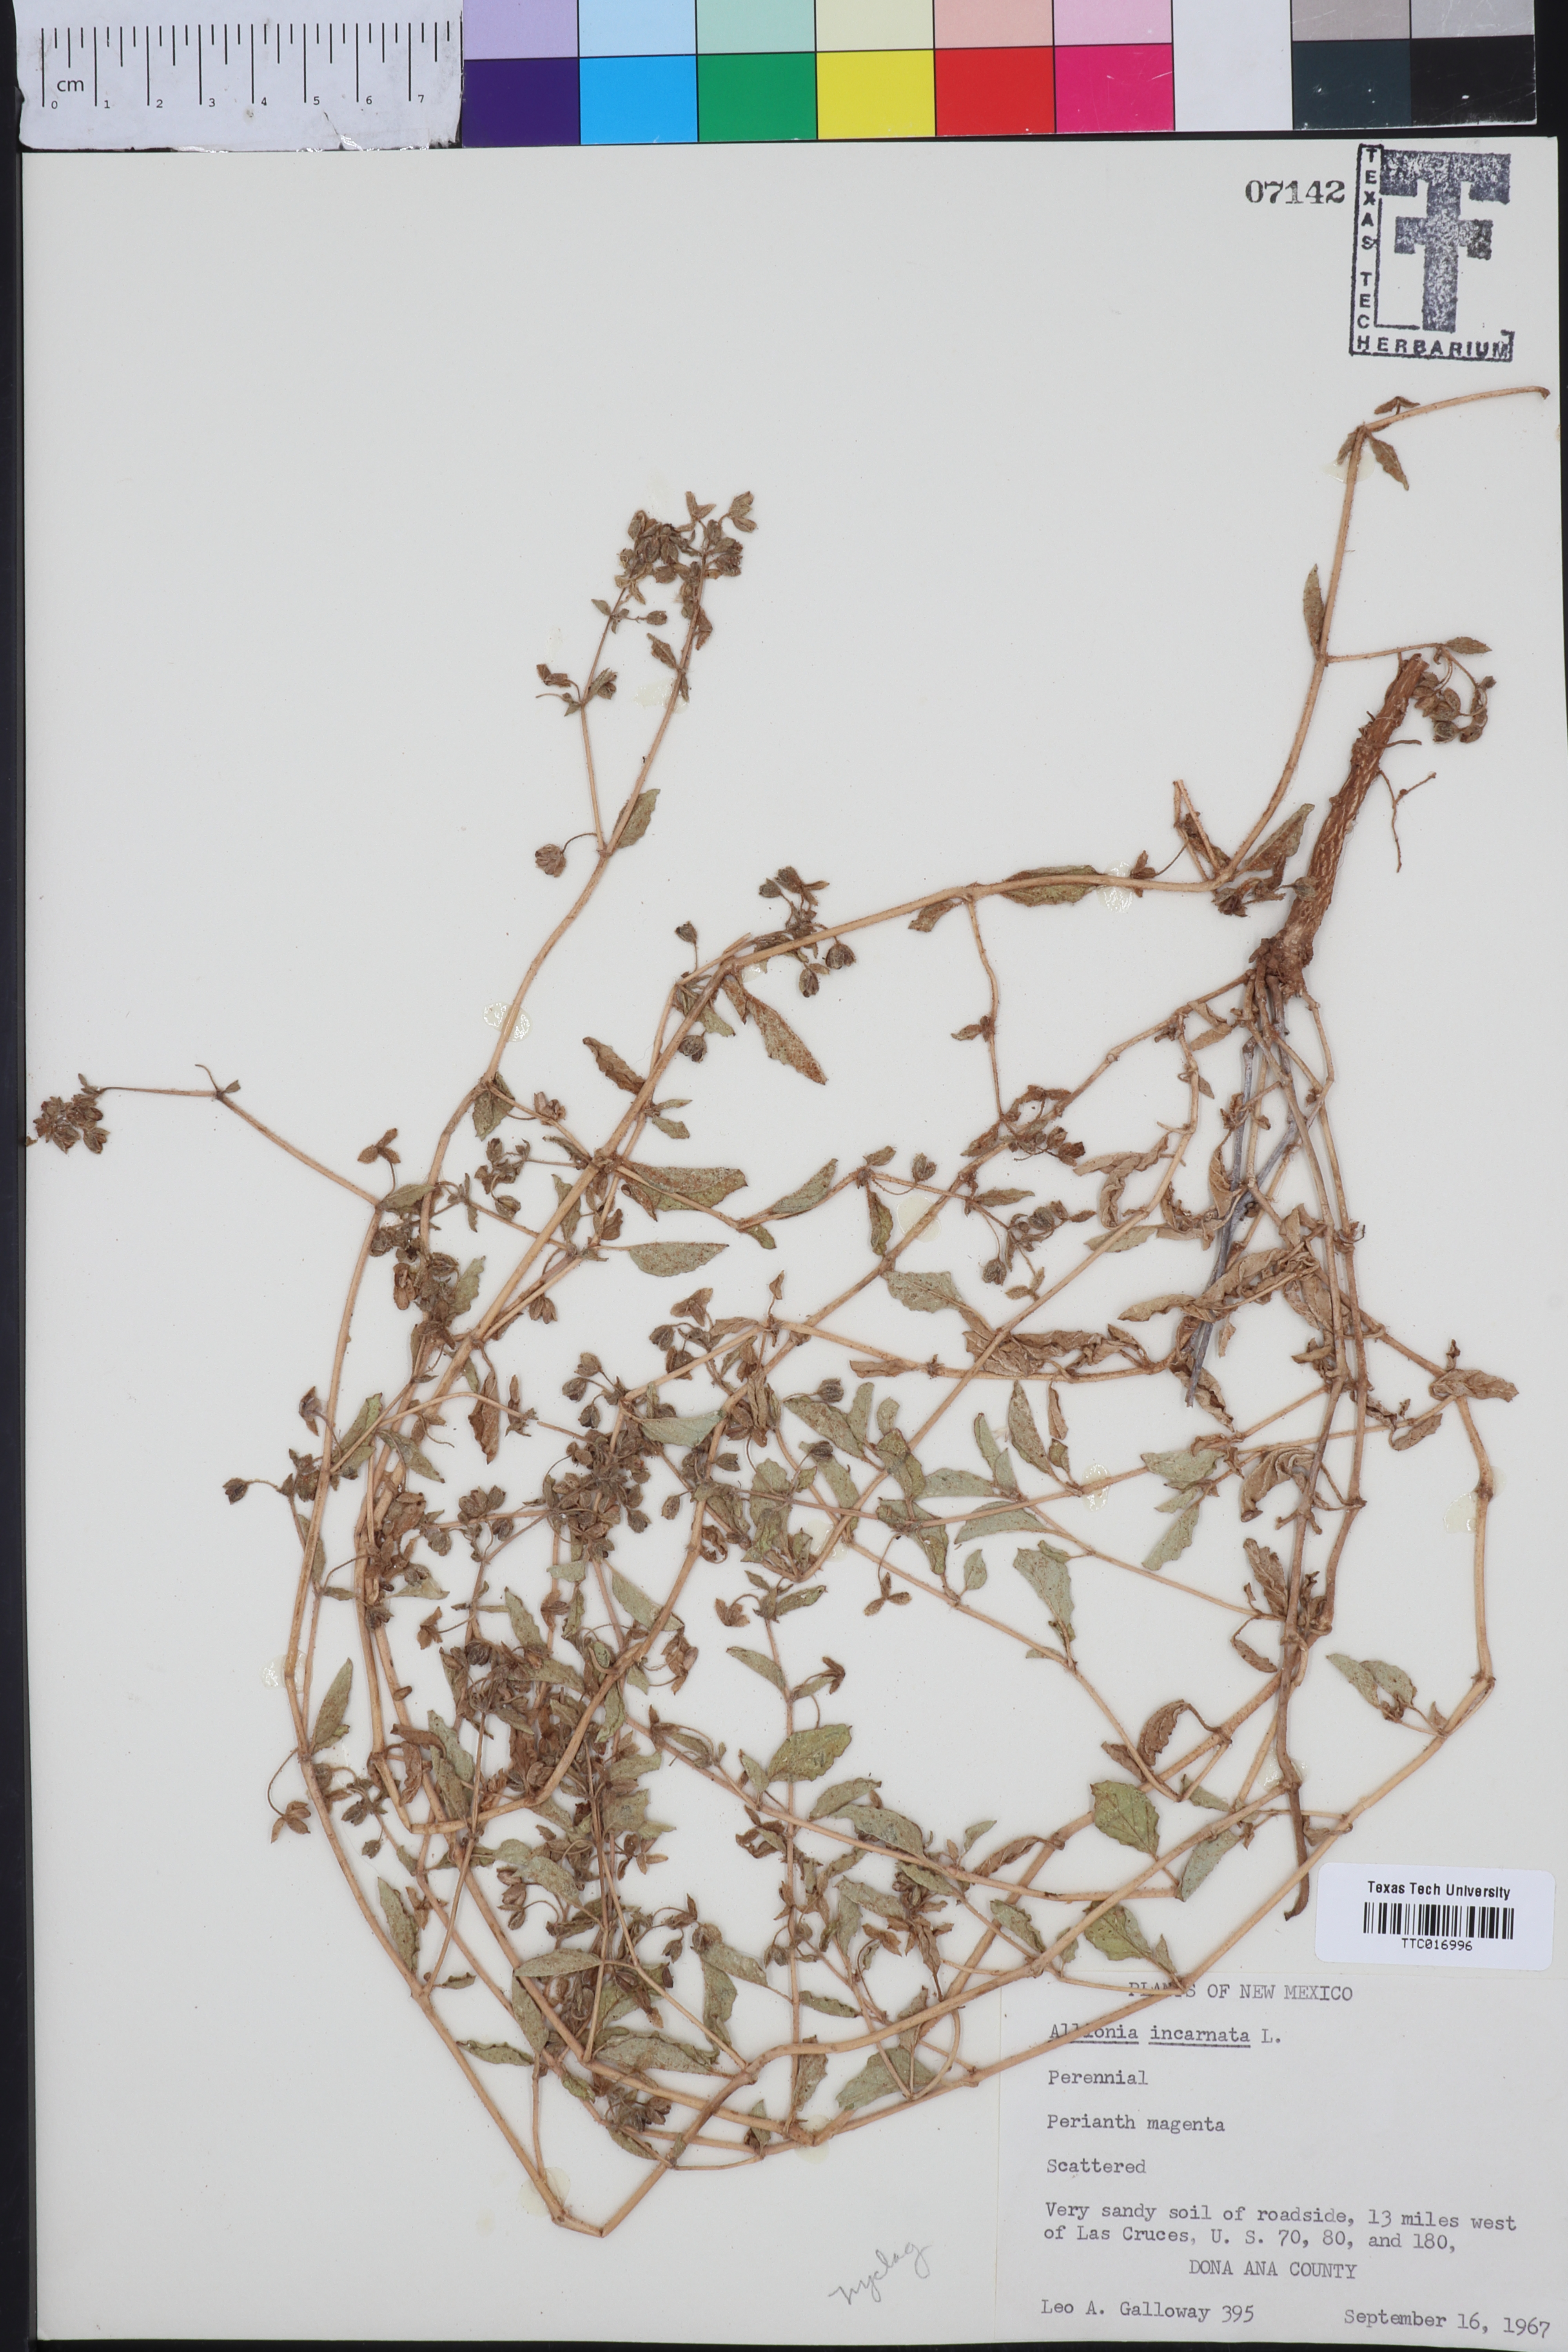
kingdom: Plantae
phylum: Tracheophyta
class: Magnoliopsida
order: Caryophyllales
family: Nyctaginaceae
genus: Allionia
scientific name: Allionia incarnata
